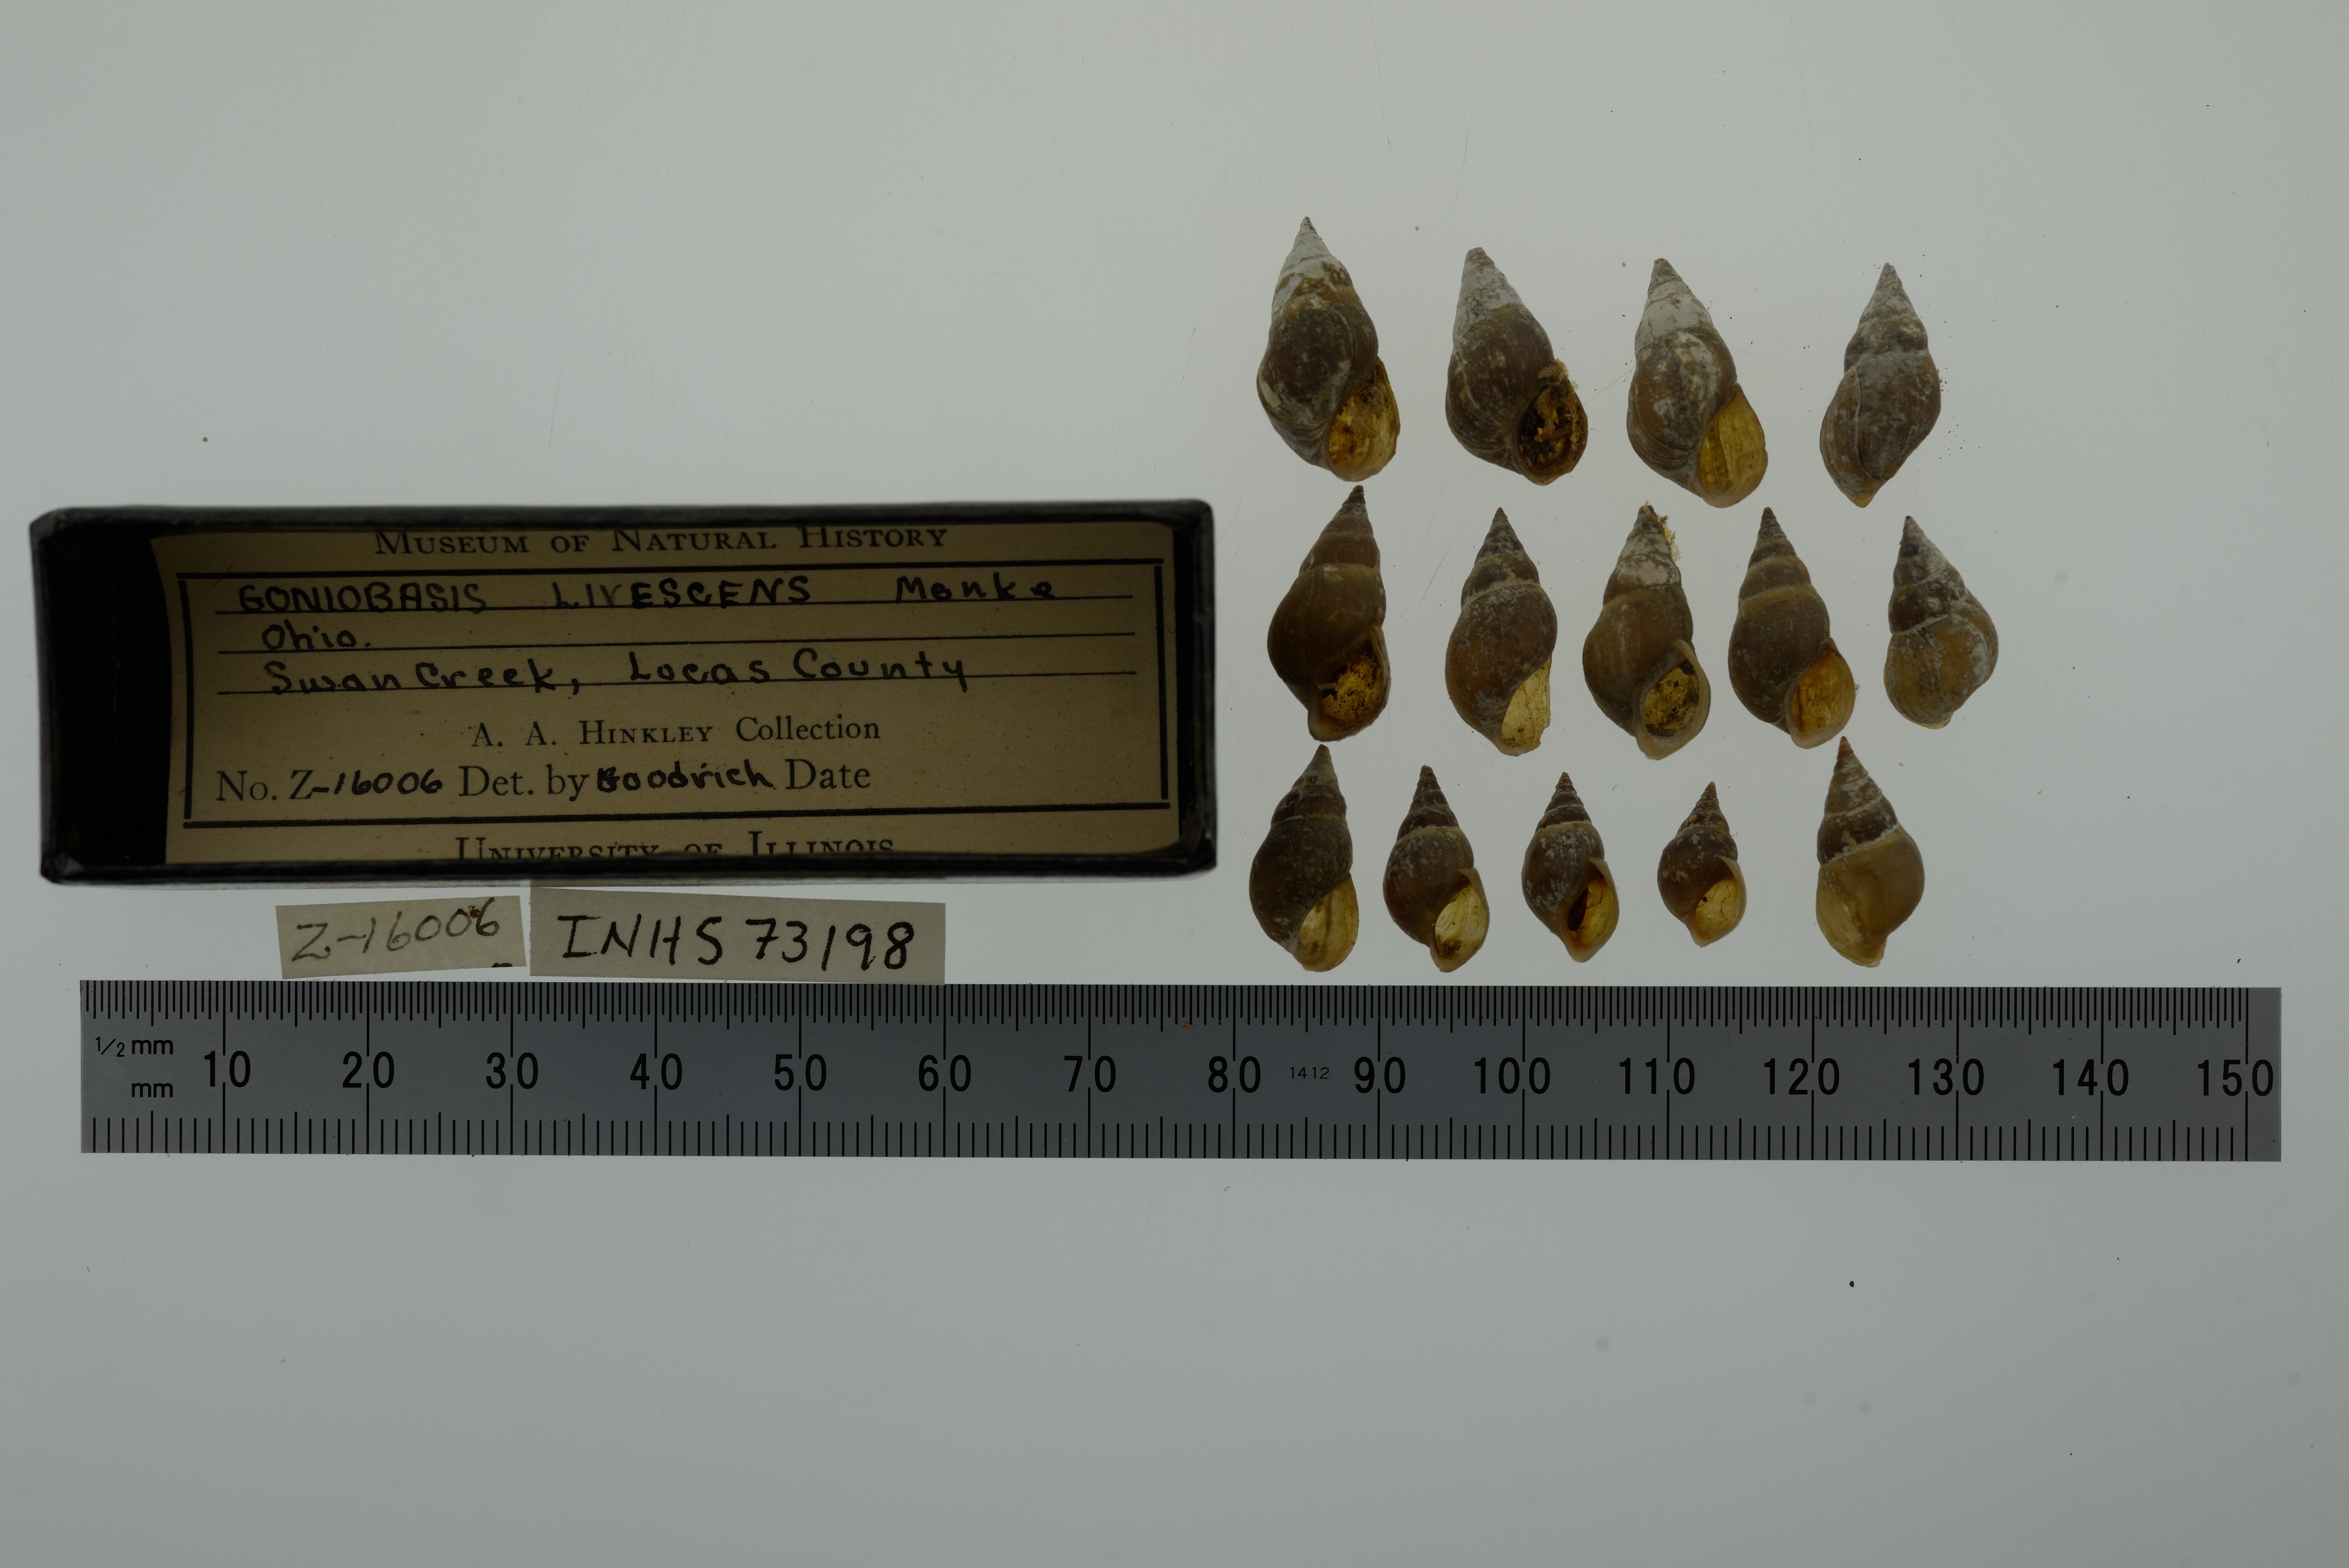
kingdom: Animalia
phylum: Mollusca
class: Gastropoda
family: Pleuroceridae
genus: Elimia
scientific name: Elimia livescens
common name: Liver elimia
